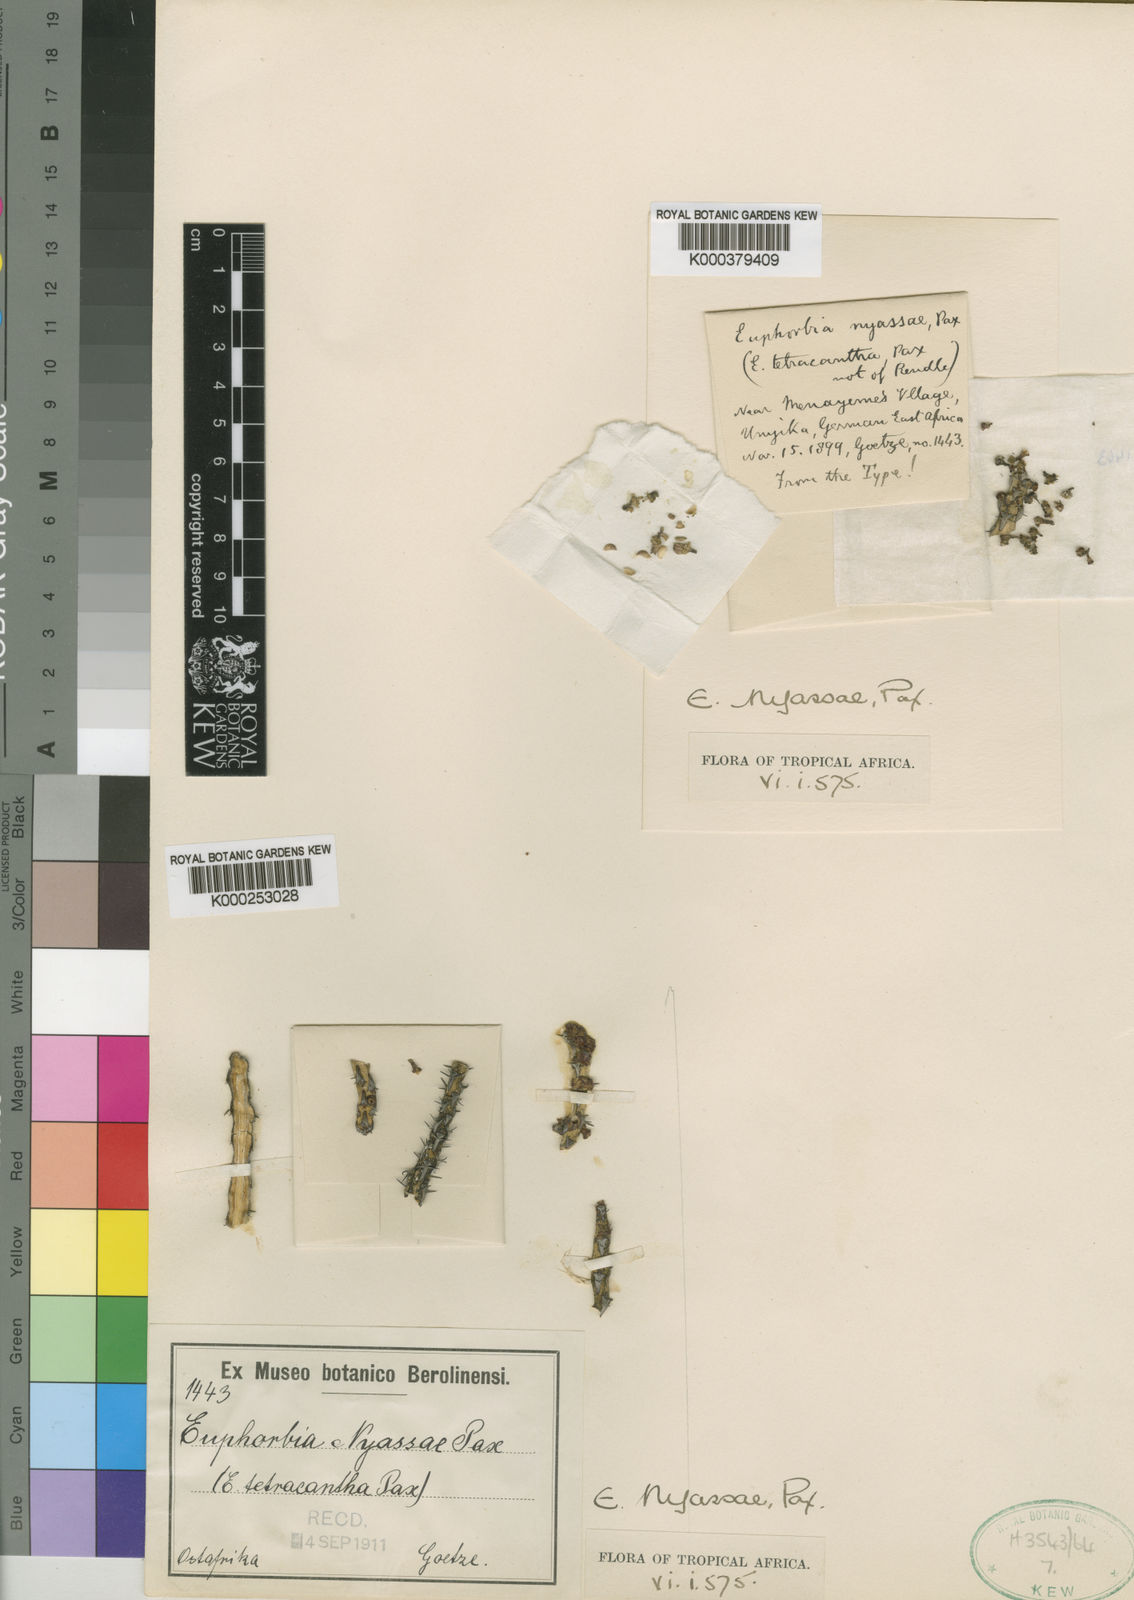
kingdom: Plantae
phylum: Tracheophyta
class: Magnoliopsida
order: Malpighiales
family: Euphorbiaceae
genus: Euphorbia
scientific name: Euphorbia nyassae
